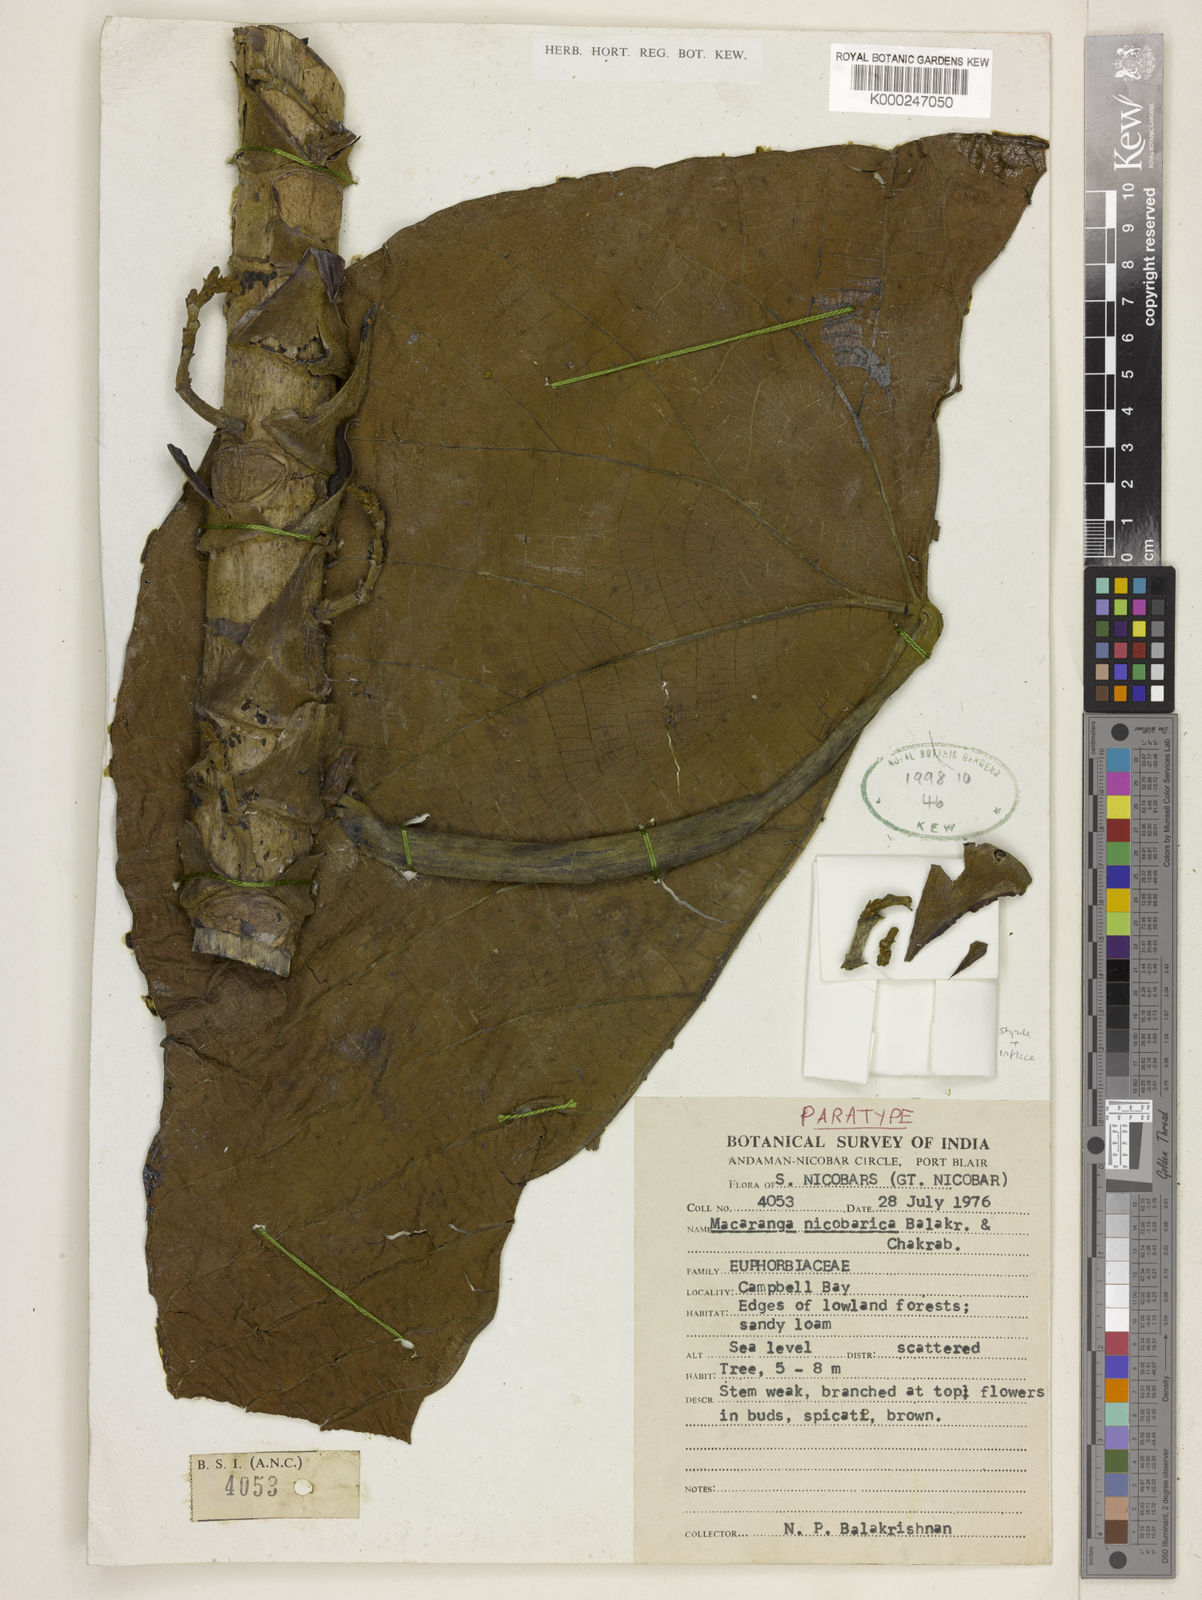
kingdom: Plantae
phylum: Tracheophyta
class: Magnoliopsida
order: Malpighiales
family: Euphorbiaceae
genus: Macaranga
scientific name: Macaranga nicobarica
